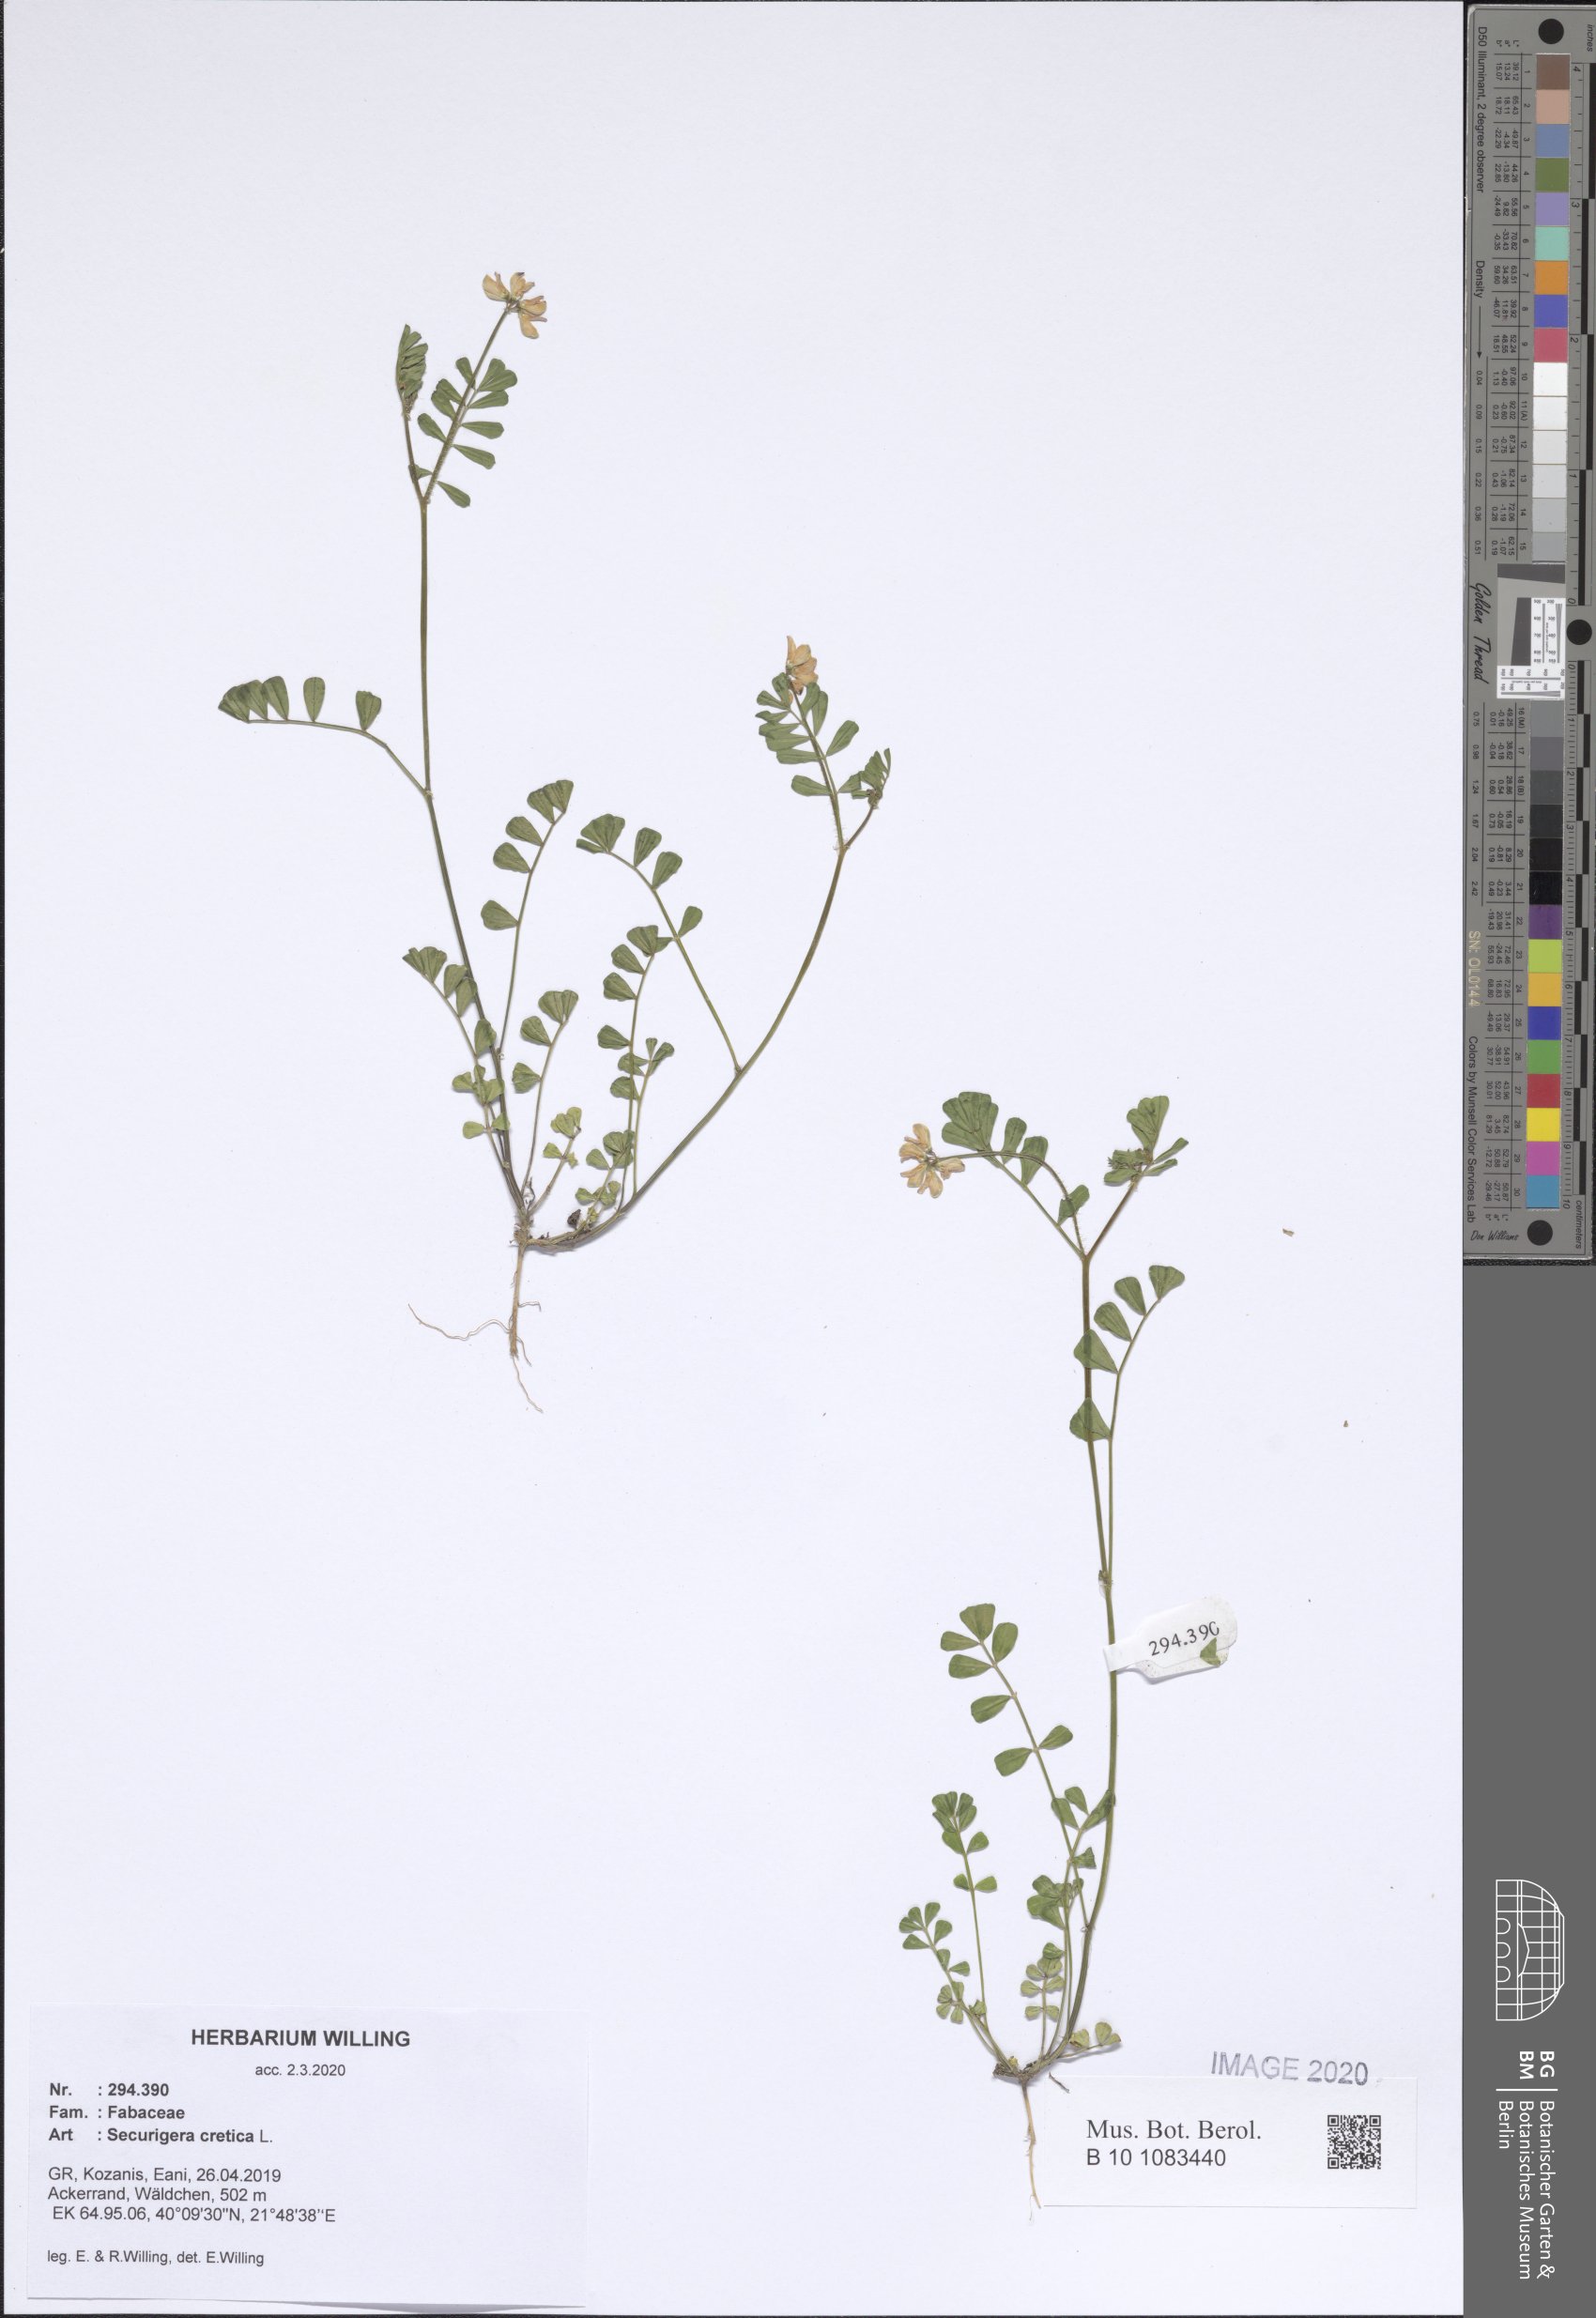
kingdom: Plantae
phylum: Tracheophyta
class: Magnoliopsida
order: Fabales
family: Fabaceae
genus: Coronilla
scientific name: Coronilla cretica
